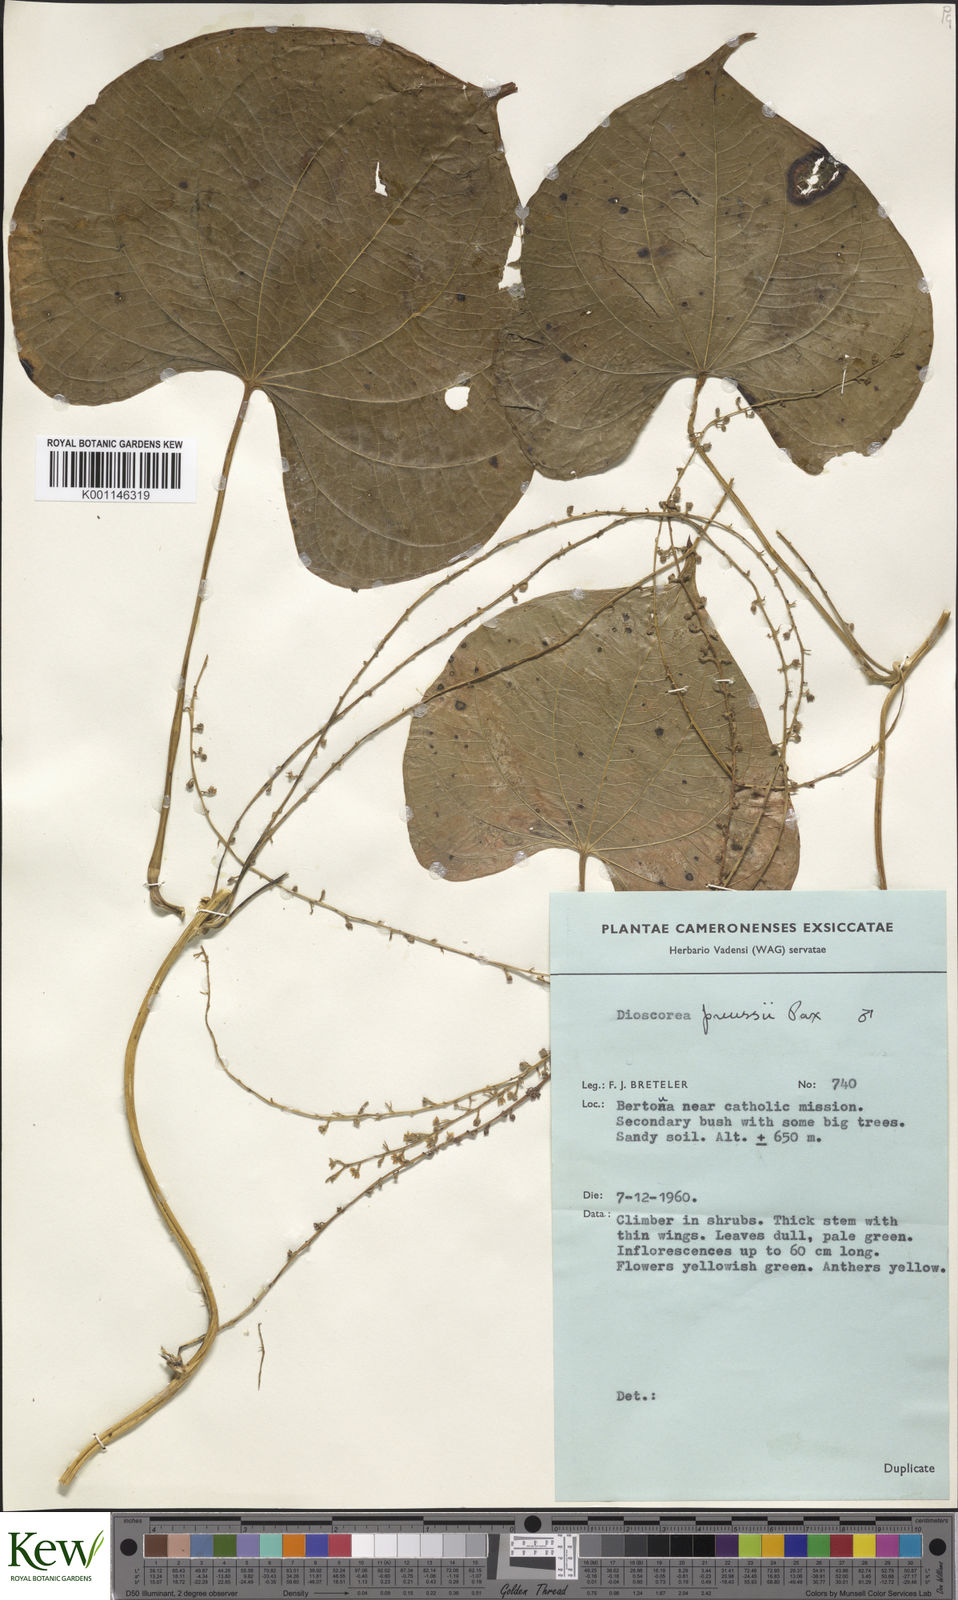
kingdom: Plantae
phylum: Tracheophyta
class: Liliopsida
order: Dioscoreales
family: Dioscoreaceae
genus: Dioscorea
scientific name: Dioscorea preussii
